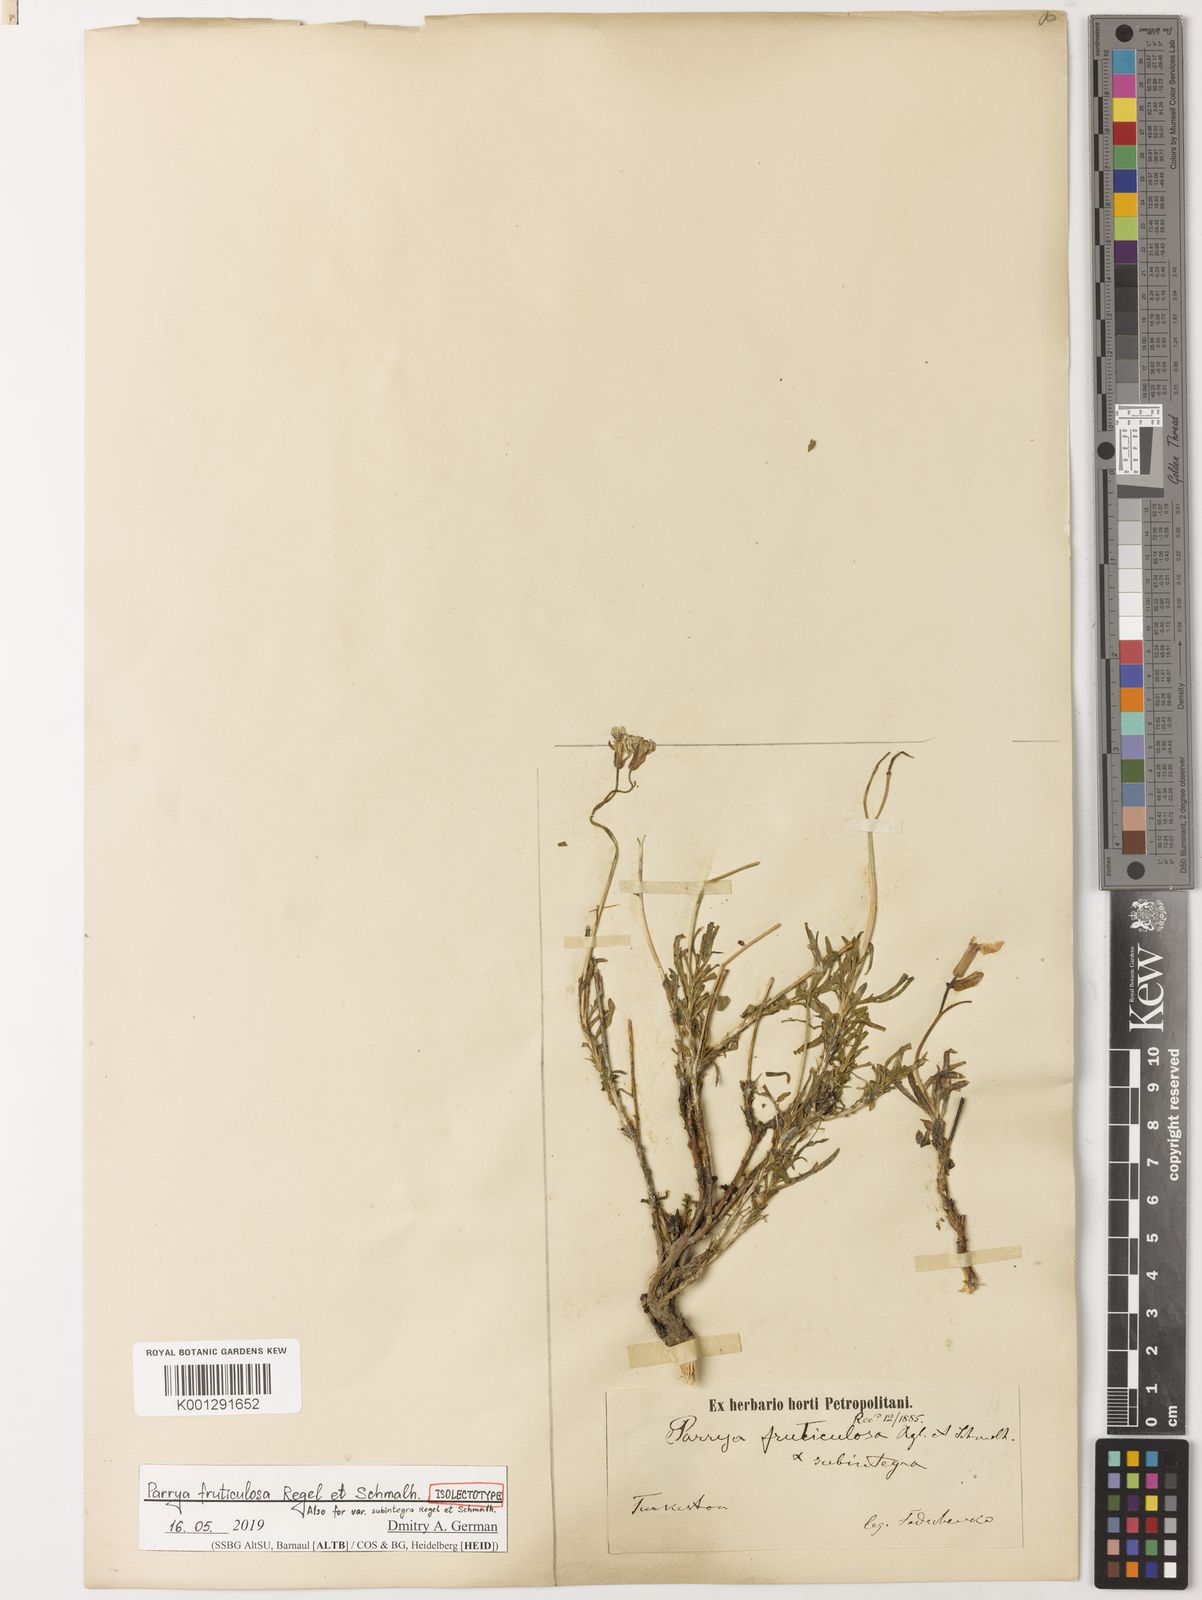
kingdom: Plantae
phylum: Tracheophyta
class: Magnoliopsida
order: Brassicales
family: Brassicaceae
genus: Parrya
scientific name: Parrya fruticulosa
